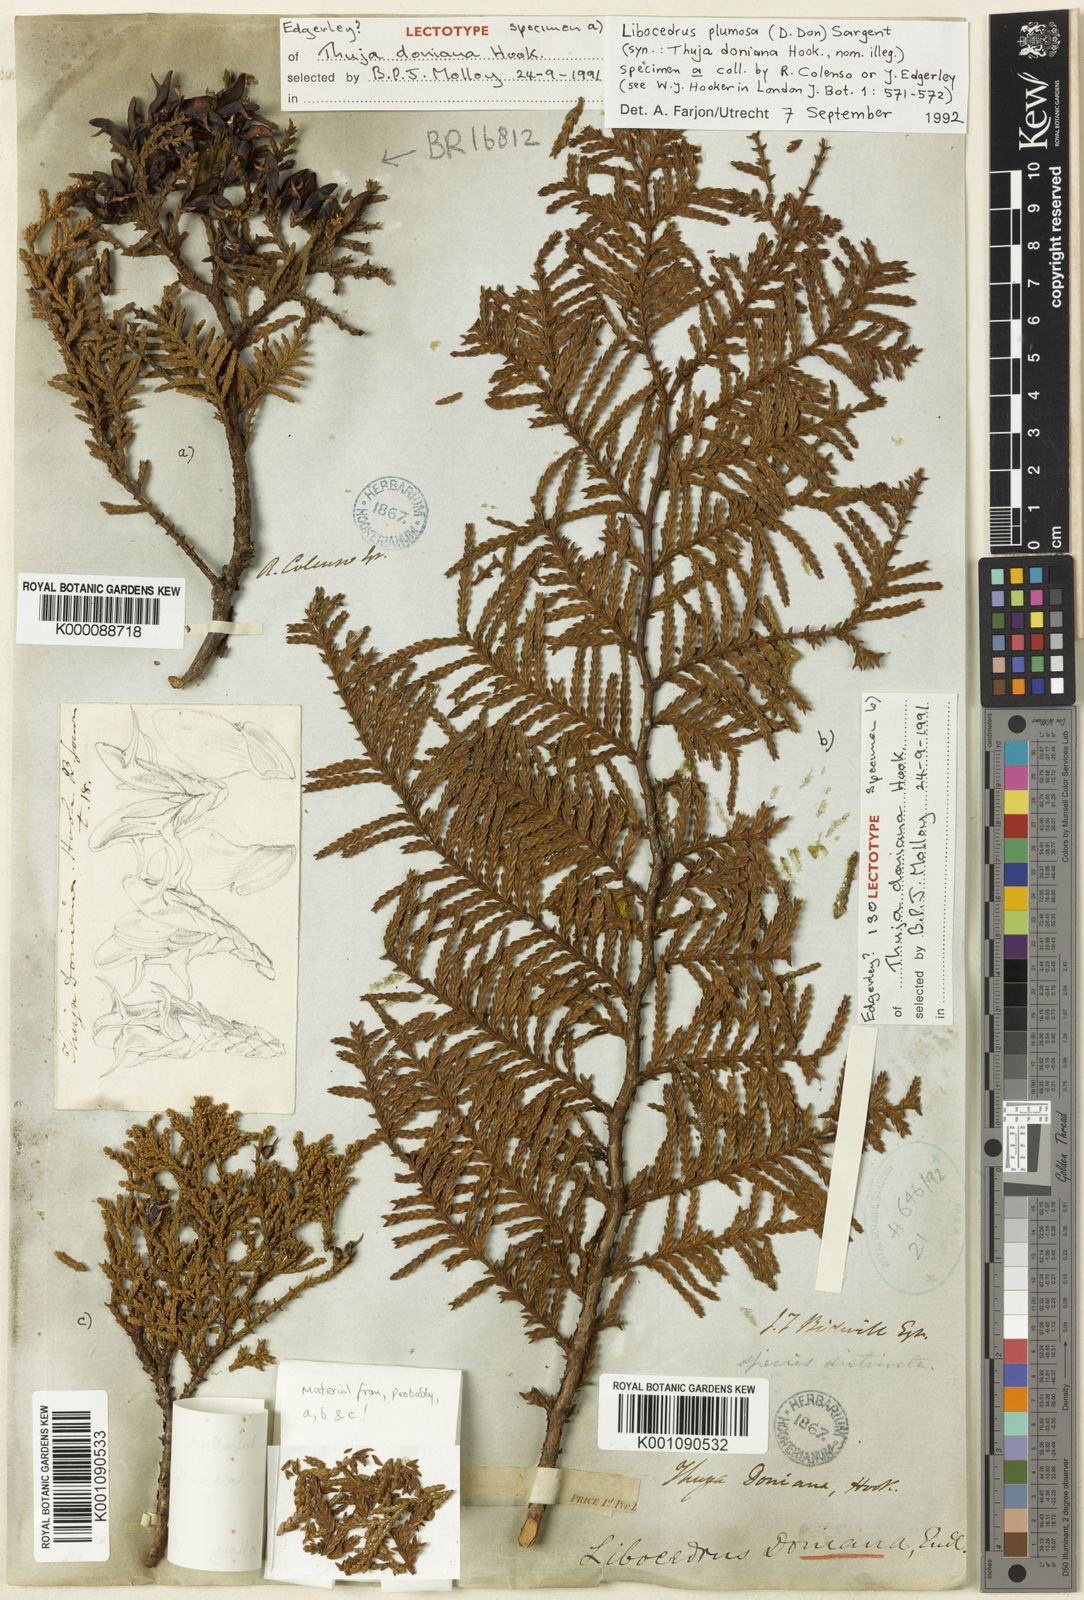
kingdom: Plantae
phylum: Tracheophyta
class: Pinopsida
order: Pinales
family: Cupressaceae
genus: Libocedrus
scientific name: Libocedrus
